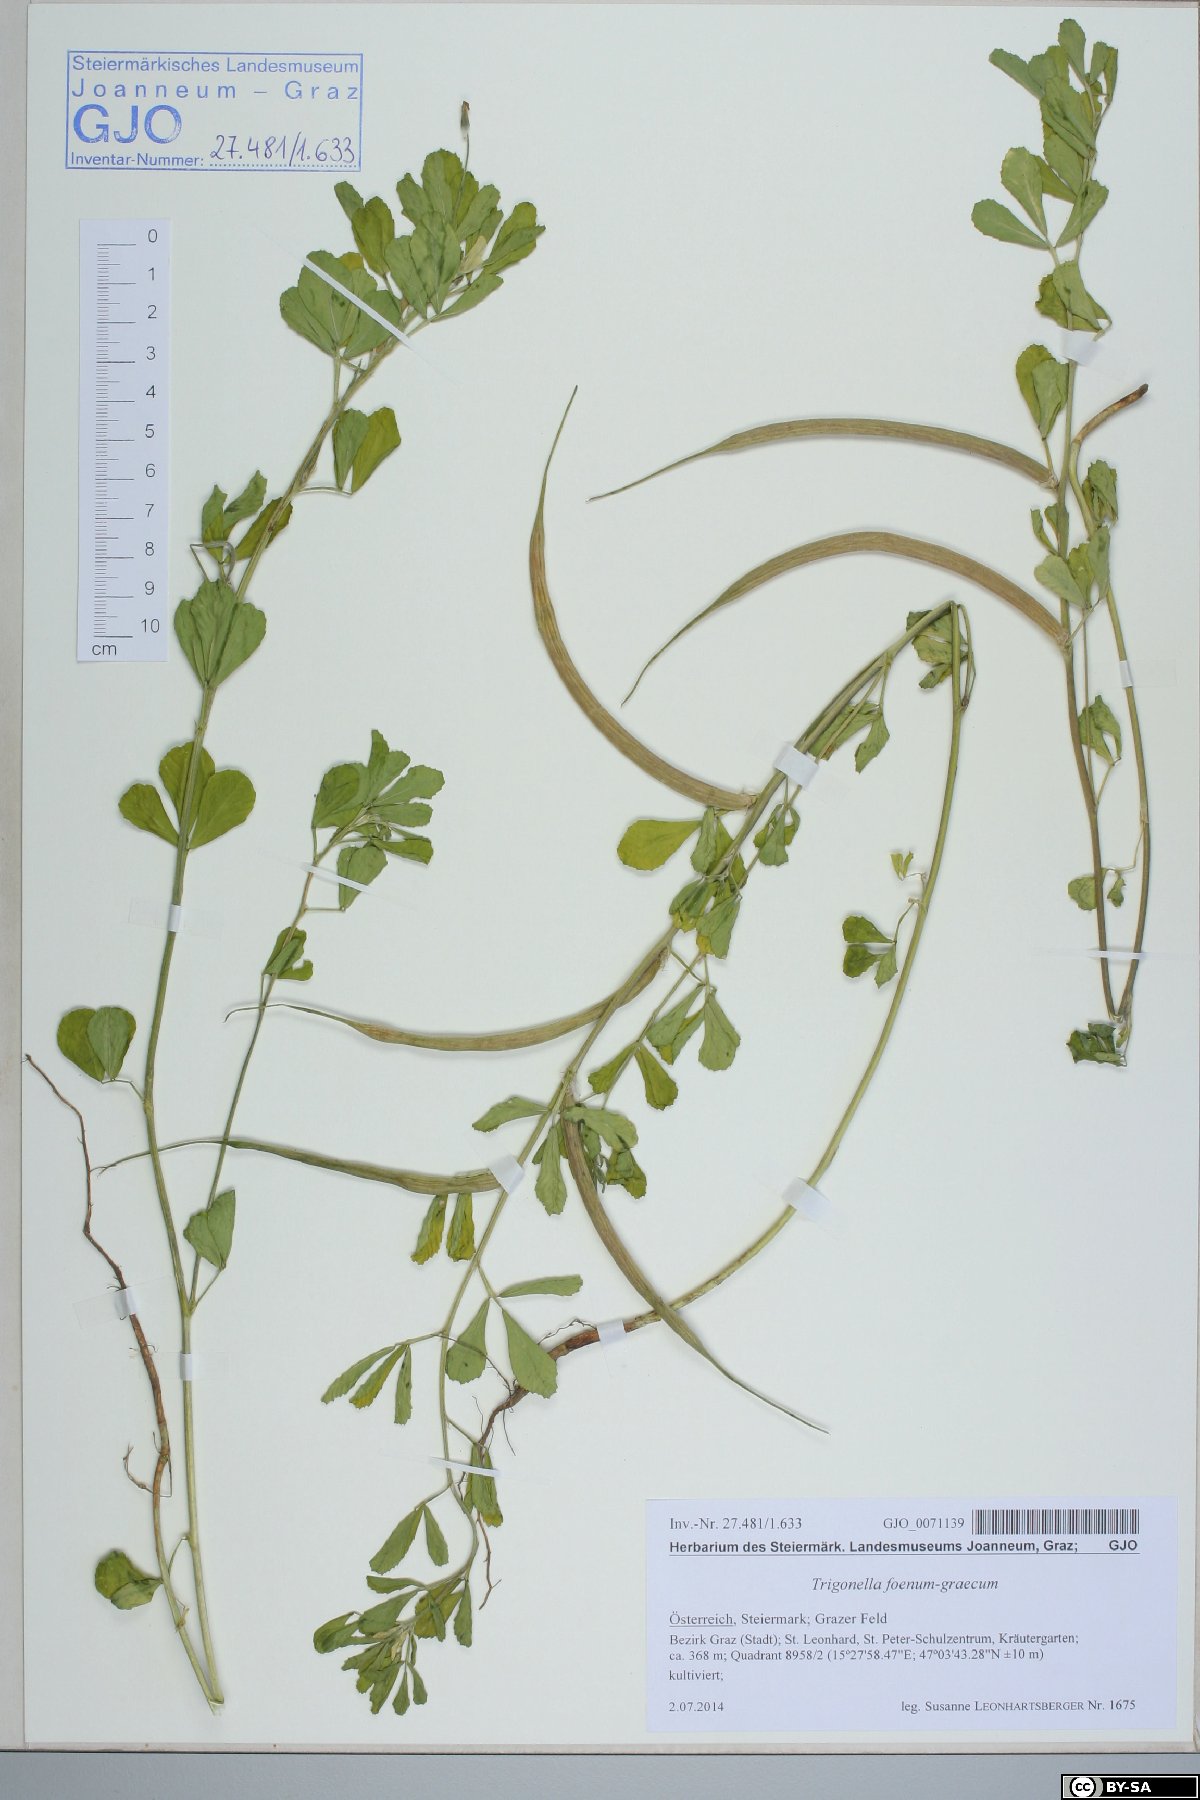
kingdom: Plantae
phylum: Tracheophyta
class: Magnoliopsida
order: Fabales
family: Fabaceae
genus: Trigonella
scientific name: Trigonella foenum-graecum
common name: Fenugreek
